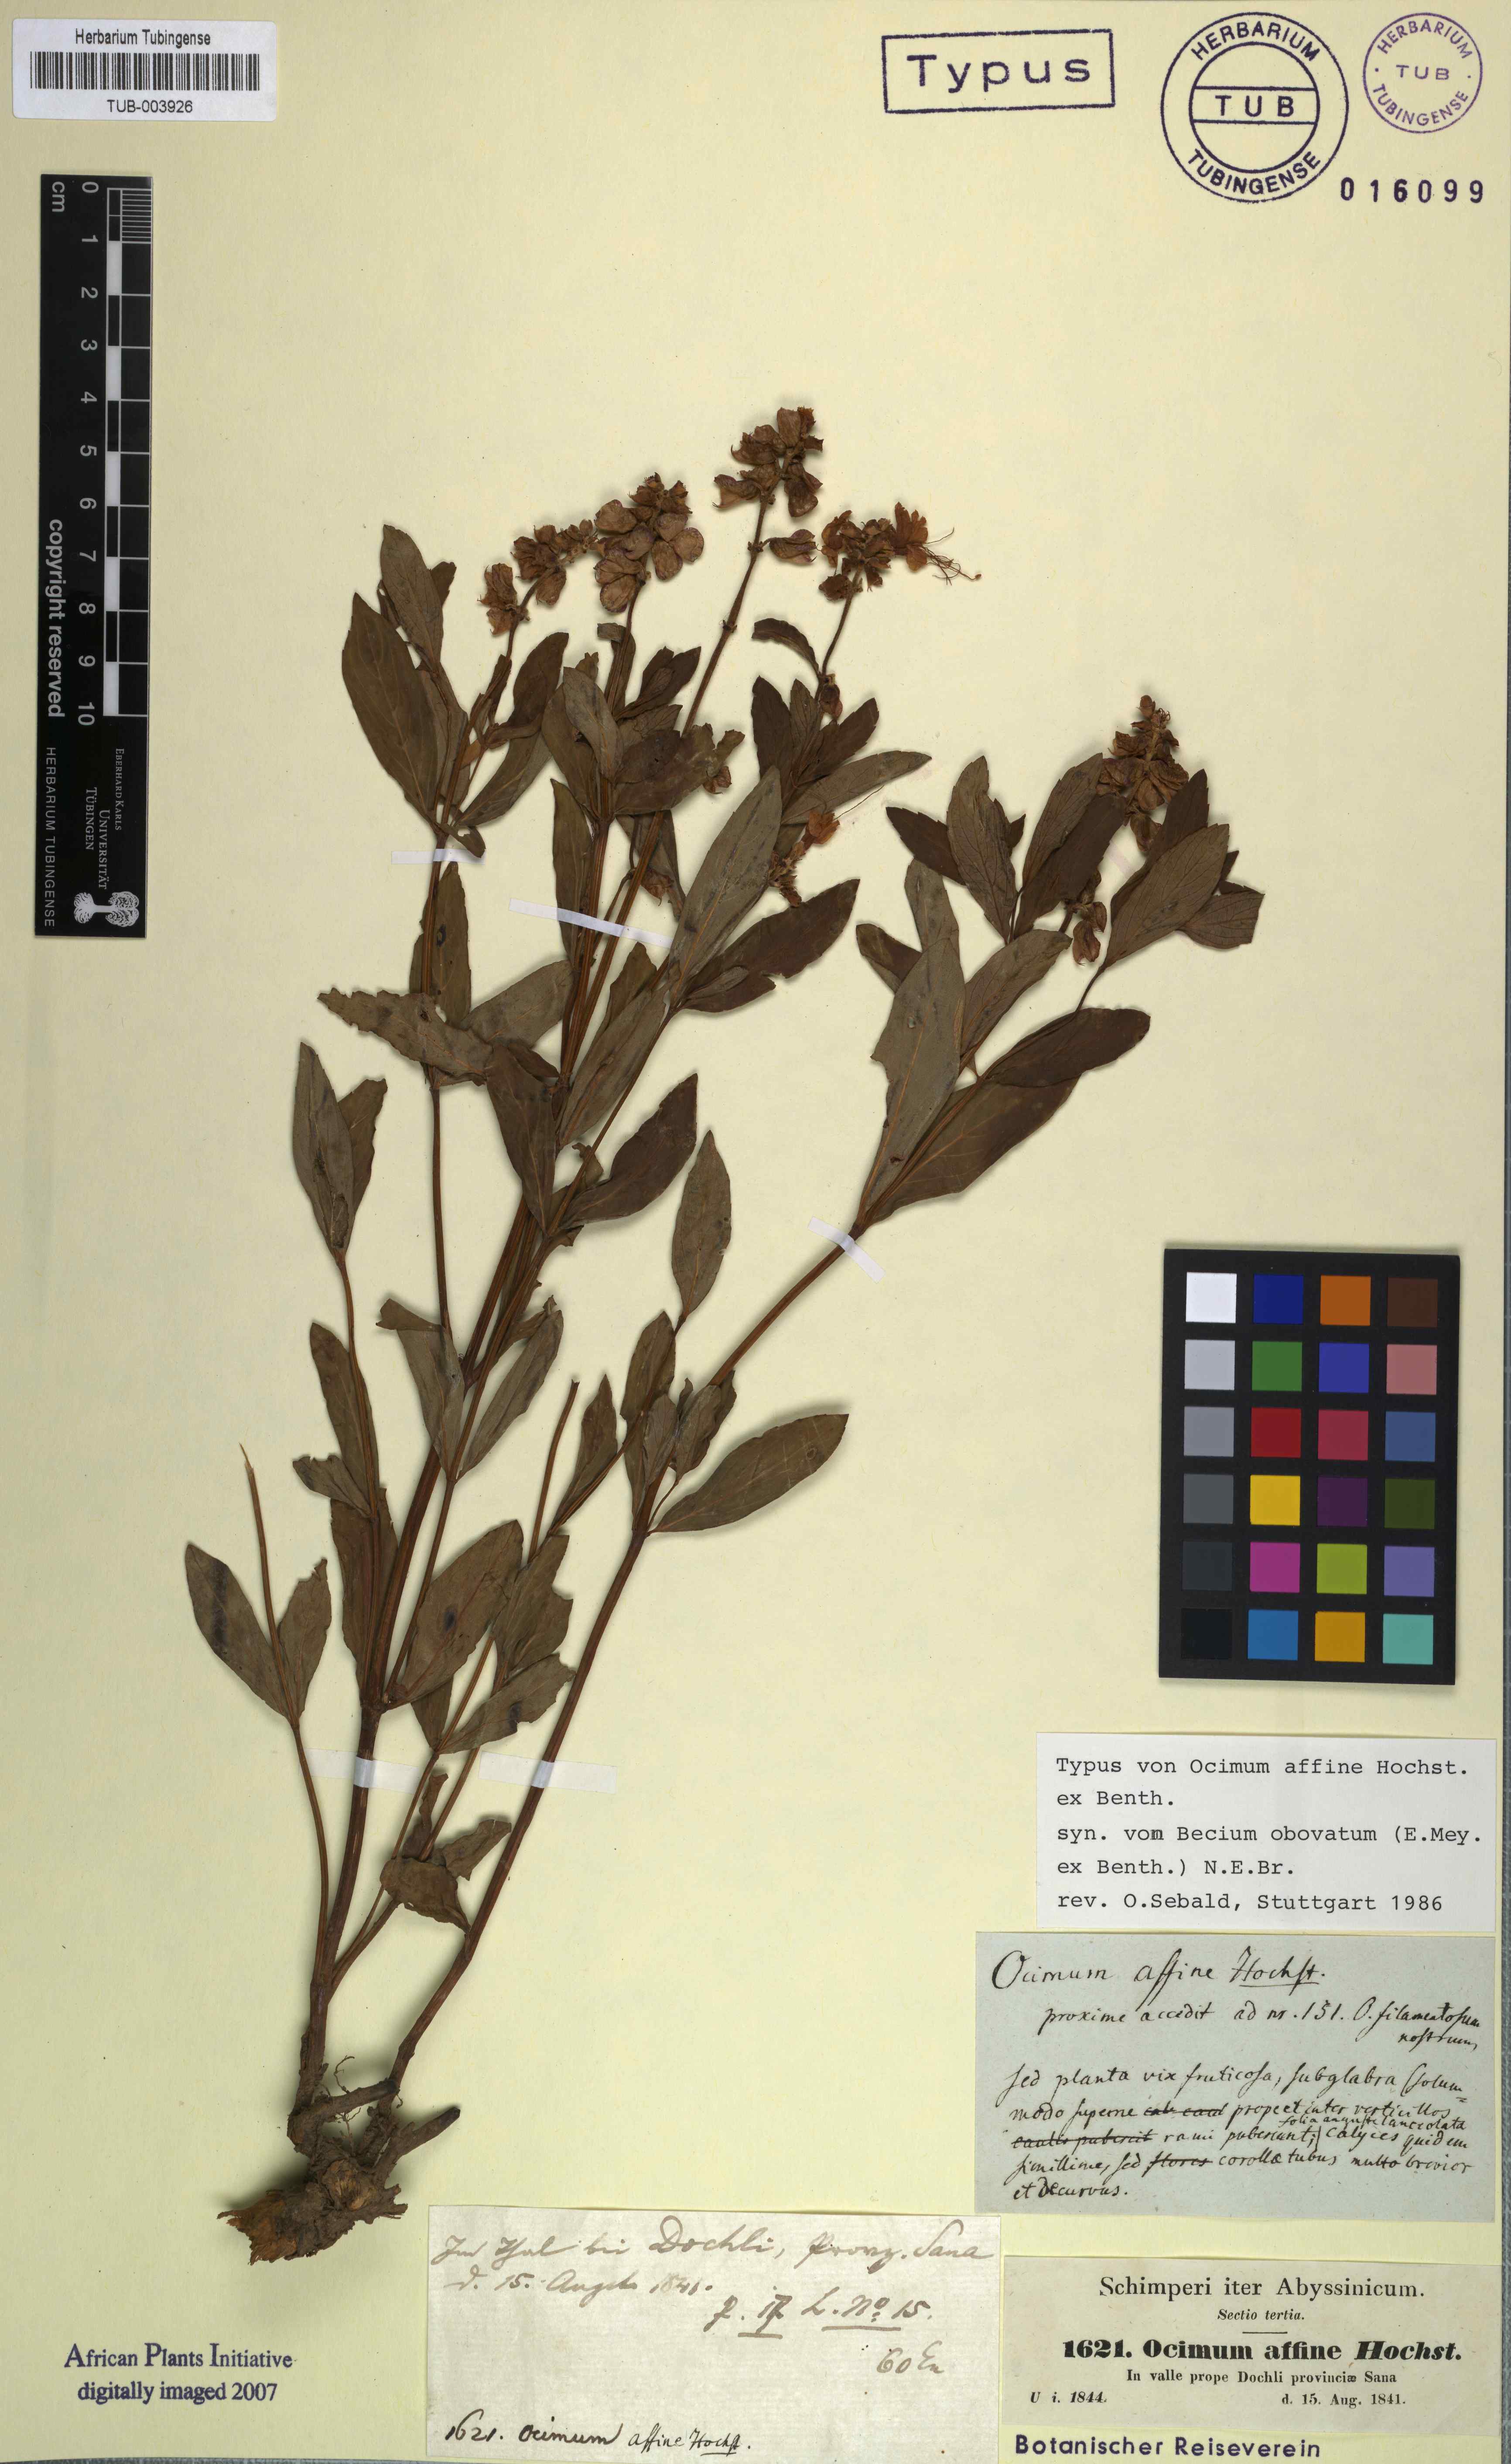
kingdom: Plantae
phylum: Tracheophyta
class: Magnoliopsida
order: Lamiales
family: Lamiaceae
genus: Ocimum
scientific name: Ocimum obovatum
